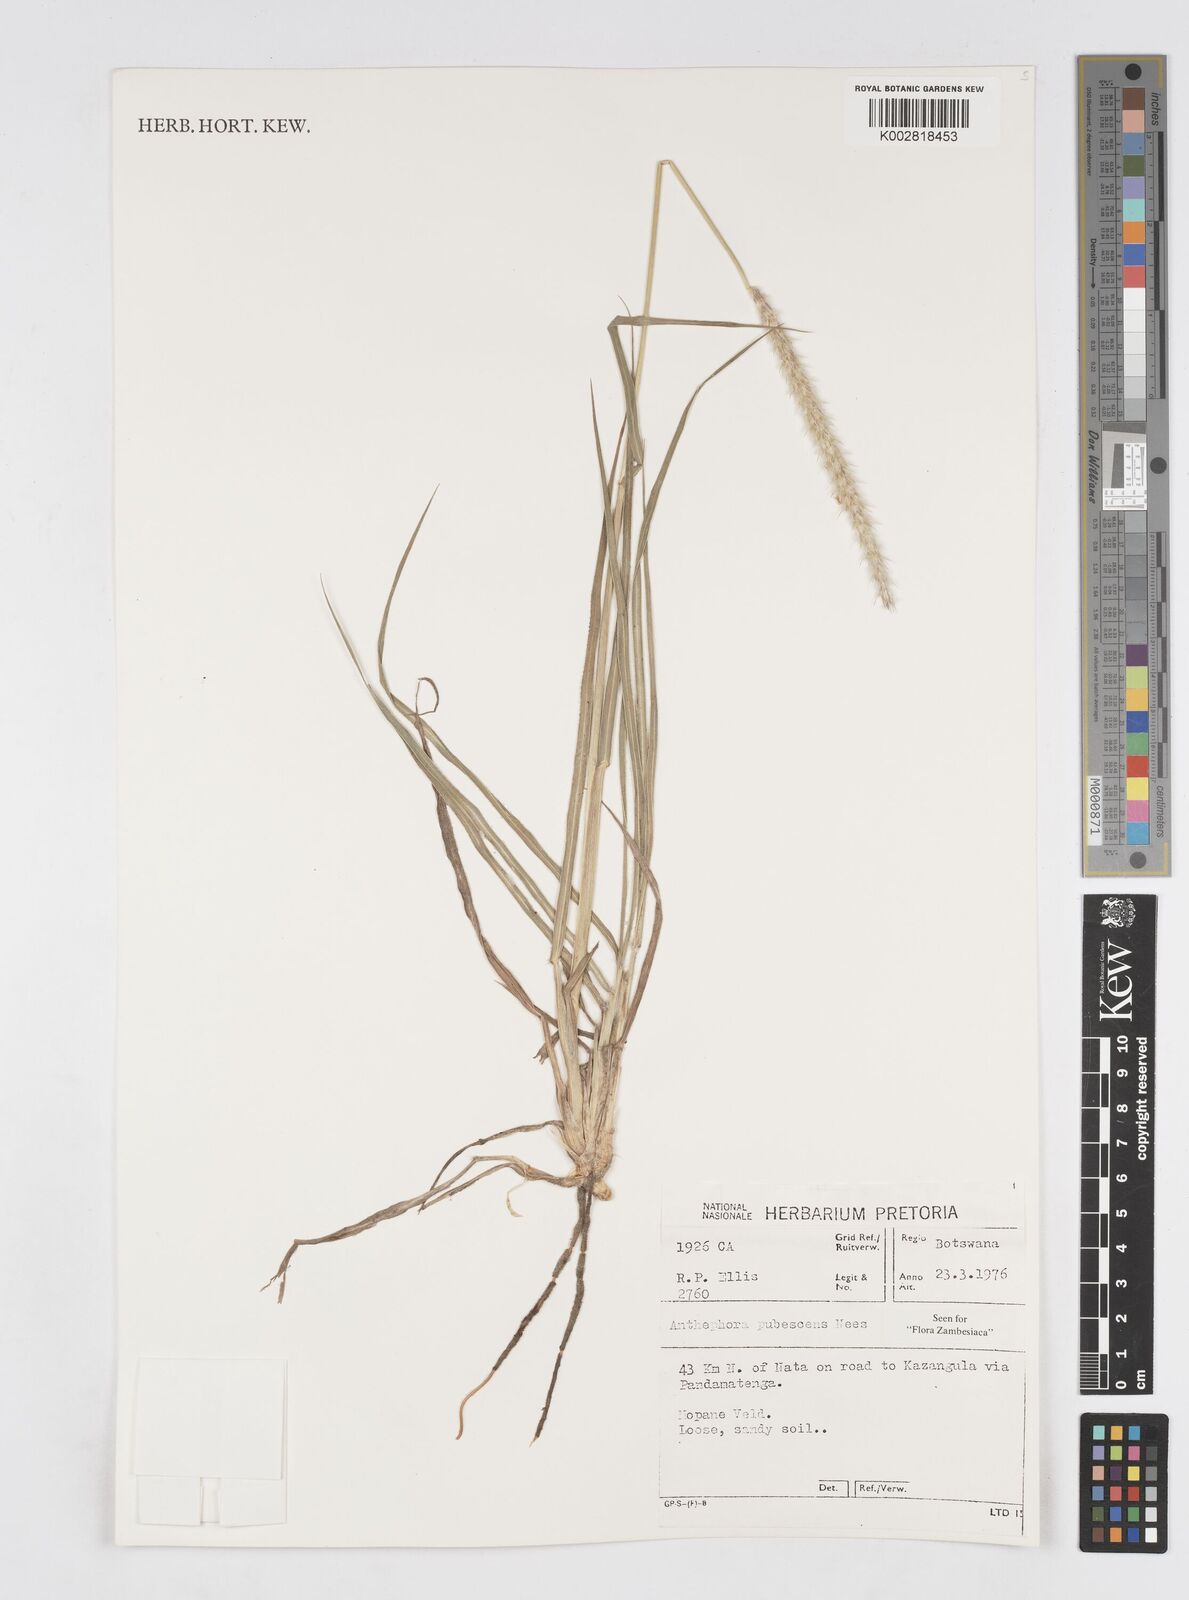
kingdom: Plantae
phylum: Tracheophyta
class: Liliopsida
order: Poales
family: Poaceae
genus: Anthephora
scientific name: Anthephora pubescens
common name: Wool grass
